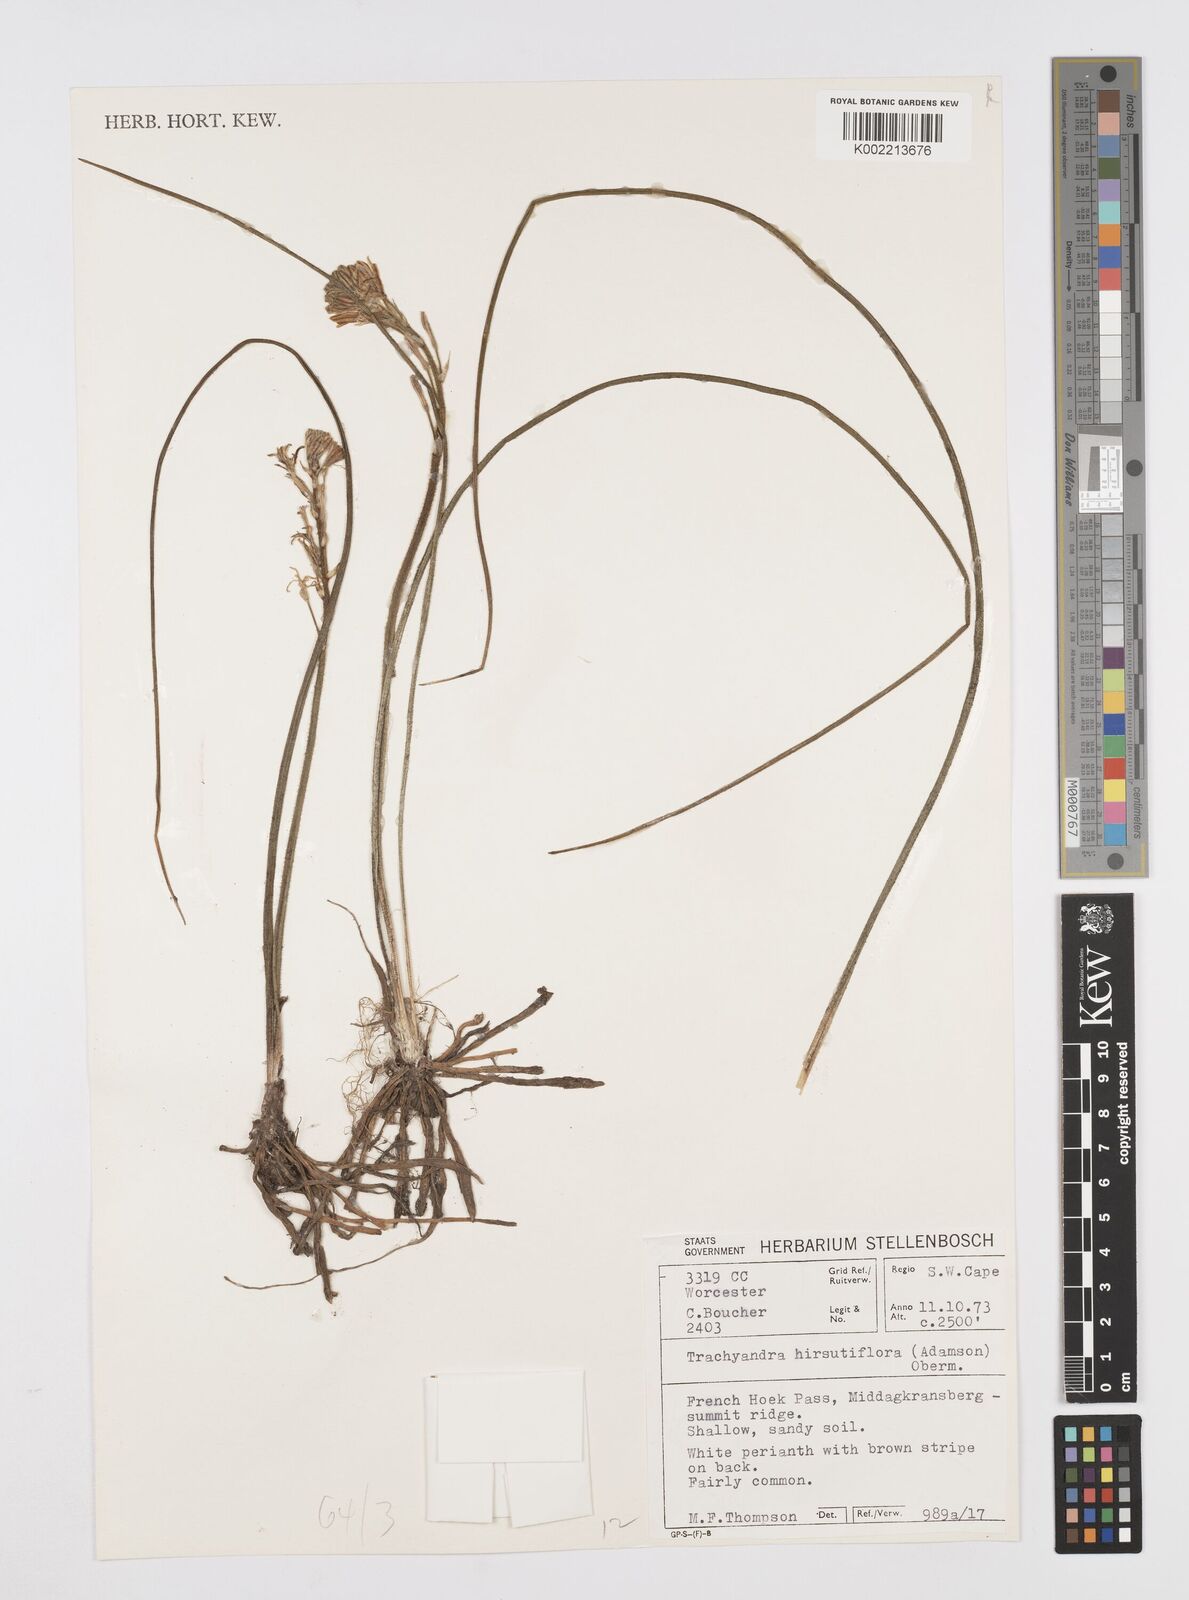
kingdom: Plantae
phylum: Tracheophyta
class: Liliopsida
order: Asparagales
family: Asphodelaceae
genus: Trachyandra
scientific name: Trachyandra hirsutiflora
